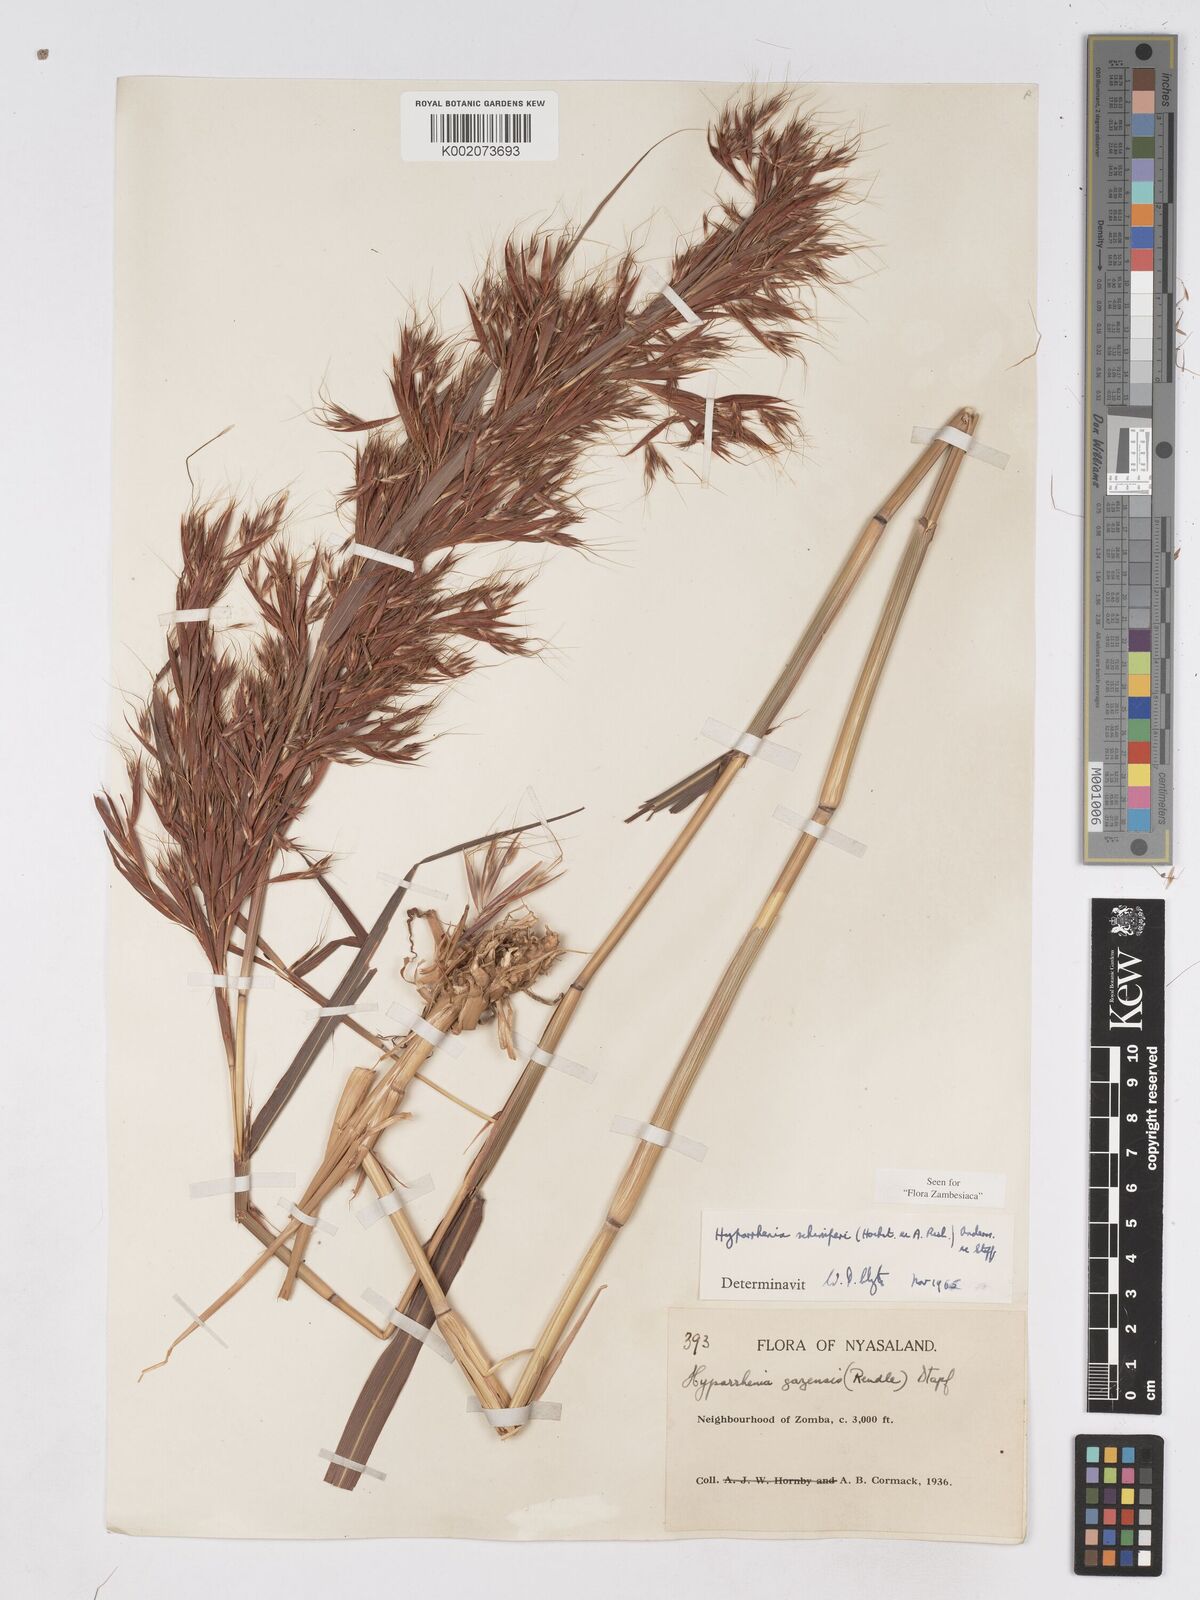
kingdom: Plantae
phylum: Tracheophyta
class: Liliopsida
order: Poales
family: Poaceae
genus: Hyparrhenia
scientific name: Hyparrhenia schimperi
